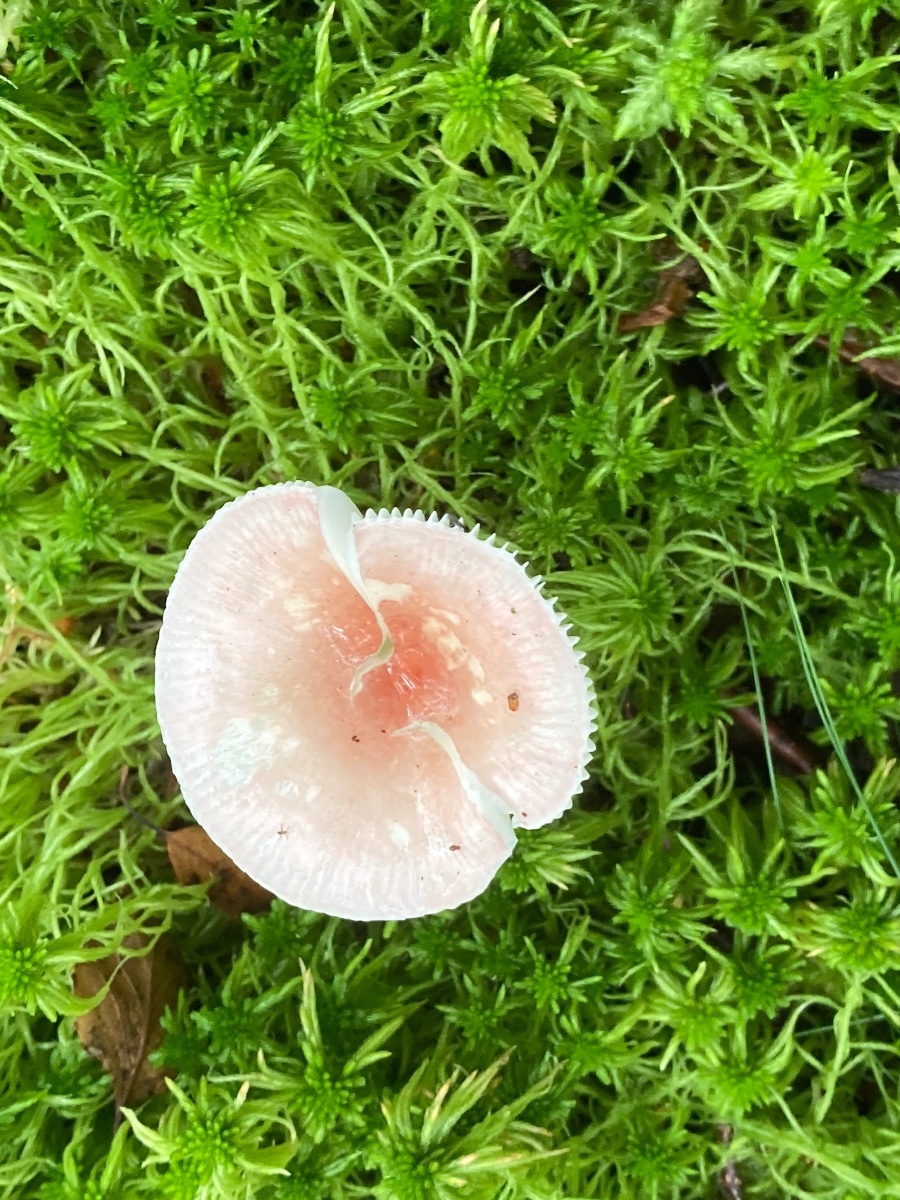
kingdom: Fungi
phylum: Basidiomycota
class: Agaricomycetes
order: Russulales
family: Russulaceae
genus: Russula
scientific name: Russula betularum
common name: bleg gift-skørhat
